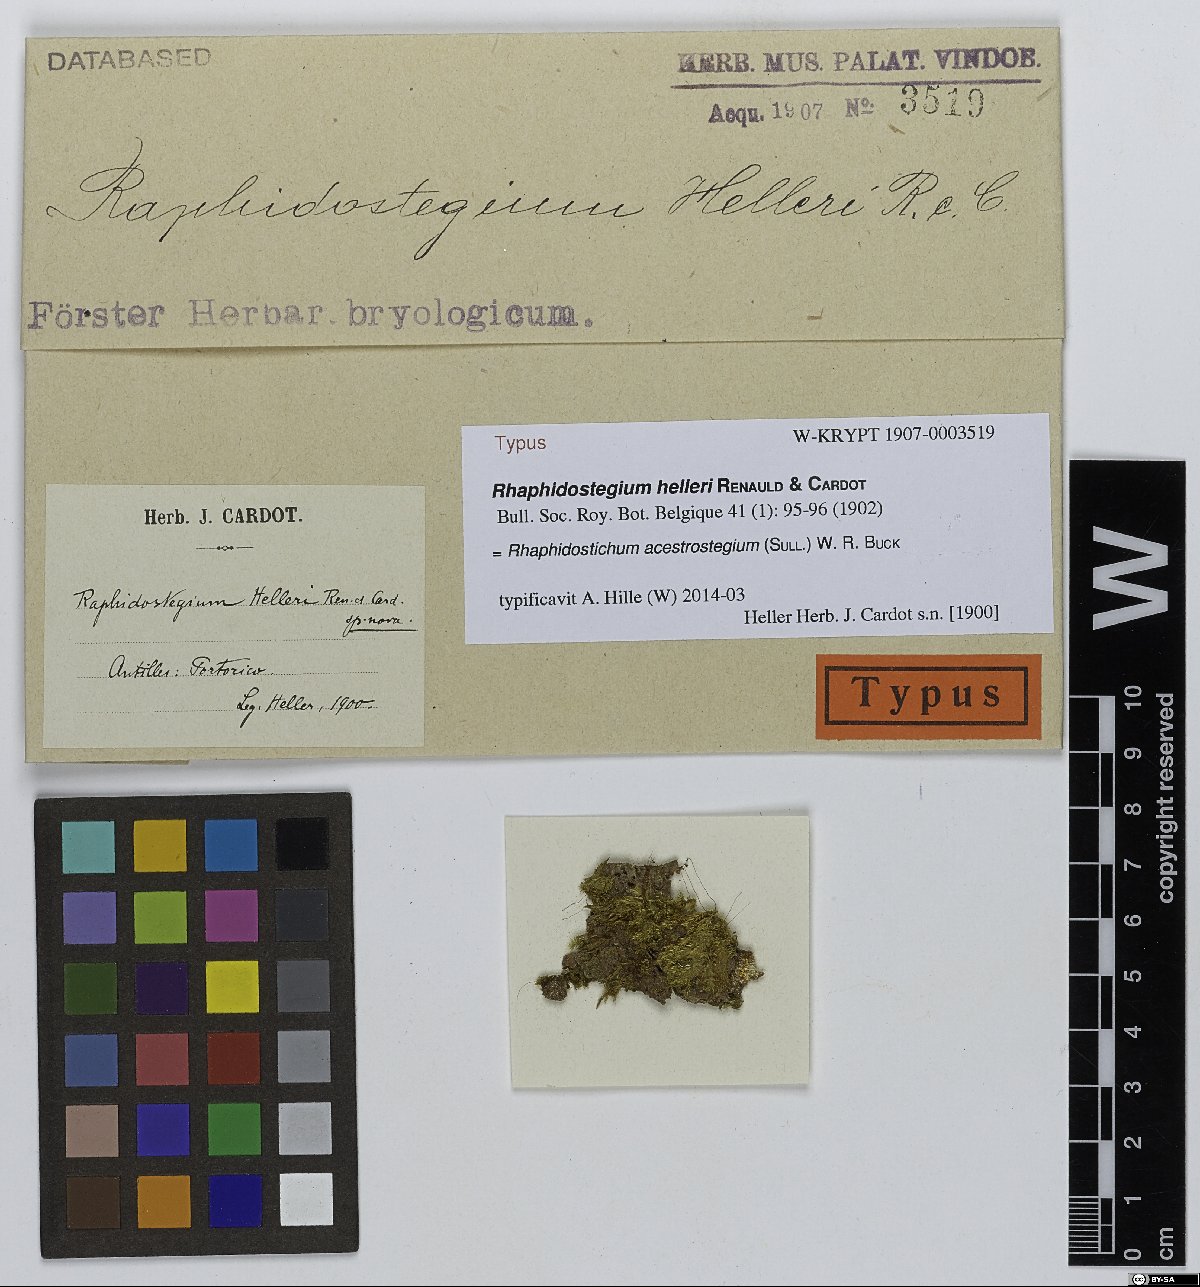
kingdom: Plantae
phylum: Bryophyta
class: Bryopsida
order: Hypnales
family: Sematophyllaceae
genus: Rhaphidostichum
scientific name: Rhaphidostichum acestrostegium
